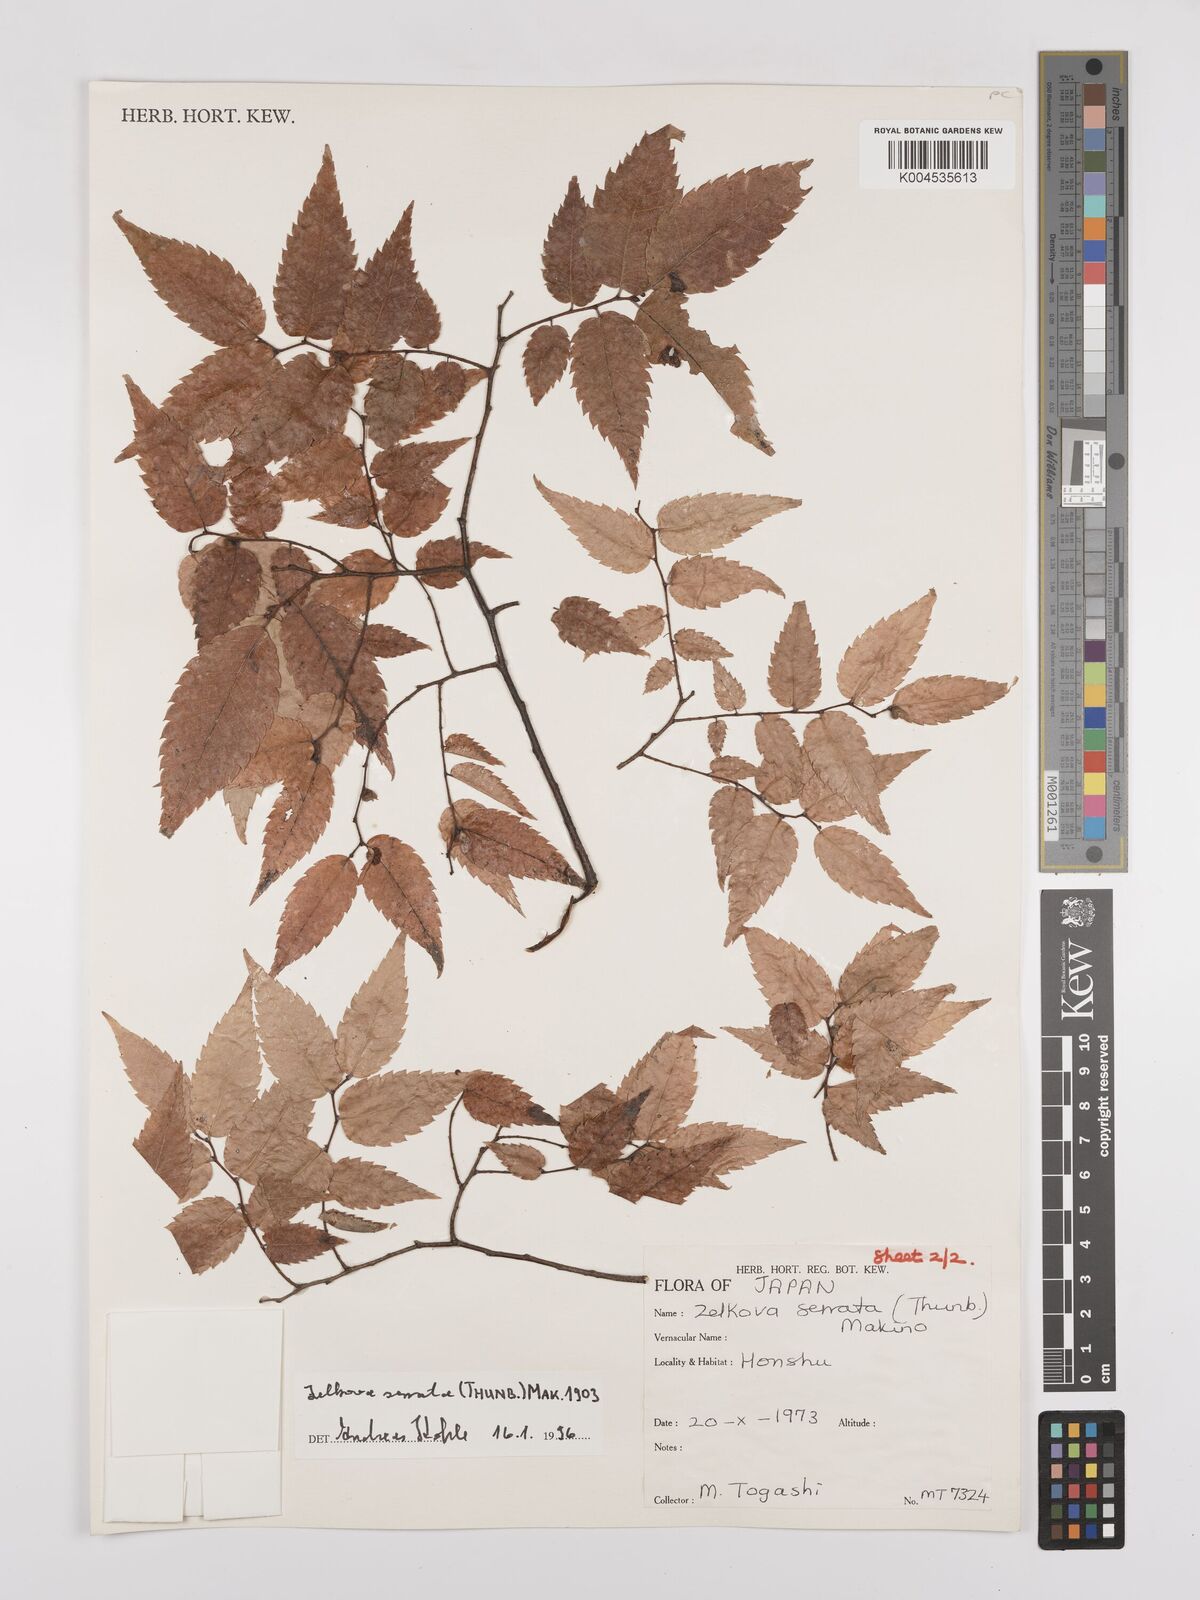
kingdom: Plantae
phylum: Tracheophyta
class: Magnoliopsida
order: Rosales
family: Ulmaceae
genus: Zelkova
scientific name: Zelkova serrata
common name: Japanese zelkova
